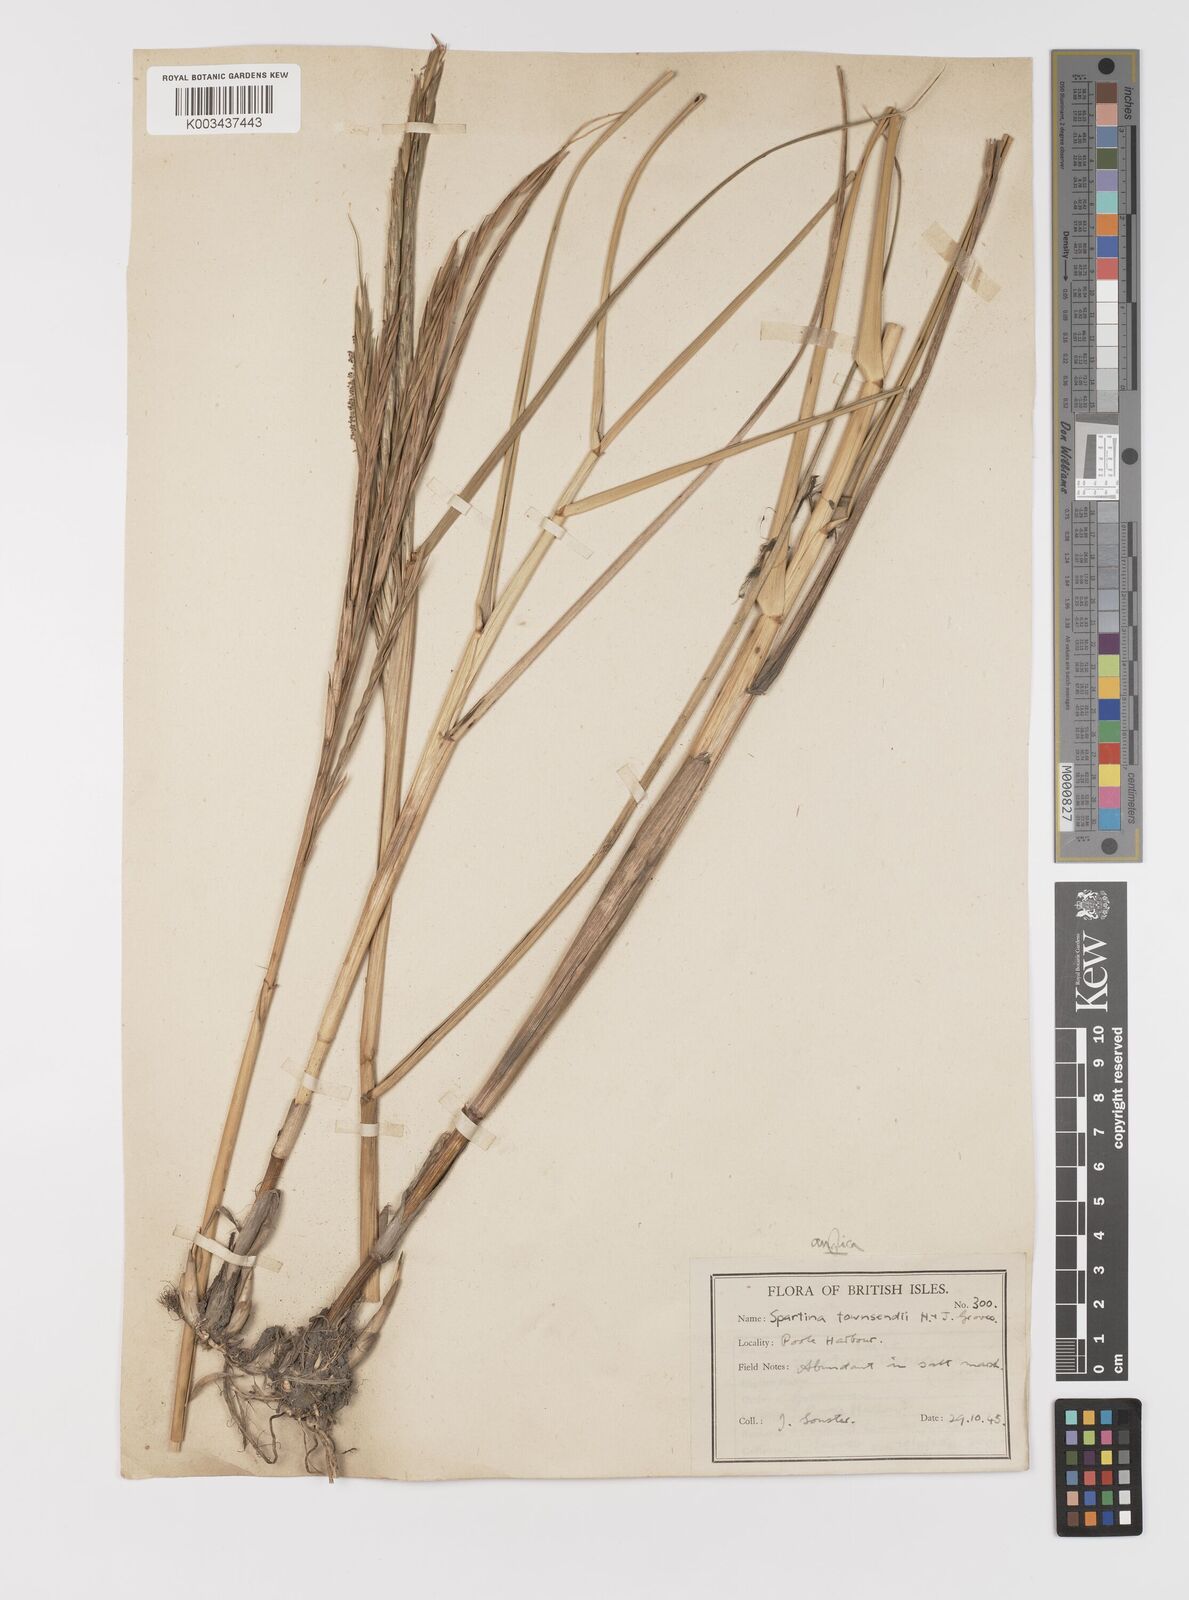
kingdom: Plantae
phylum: Tracheophyta
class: Liliopsida
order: Poales
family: Poaceae
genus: Sporobolus
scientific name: Sporobolus anglicus
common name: English cordgrass
